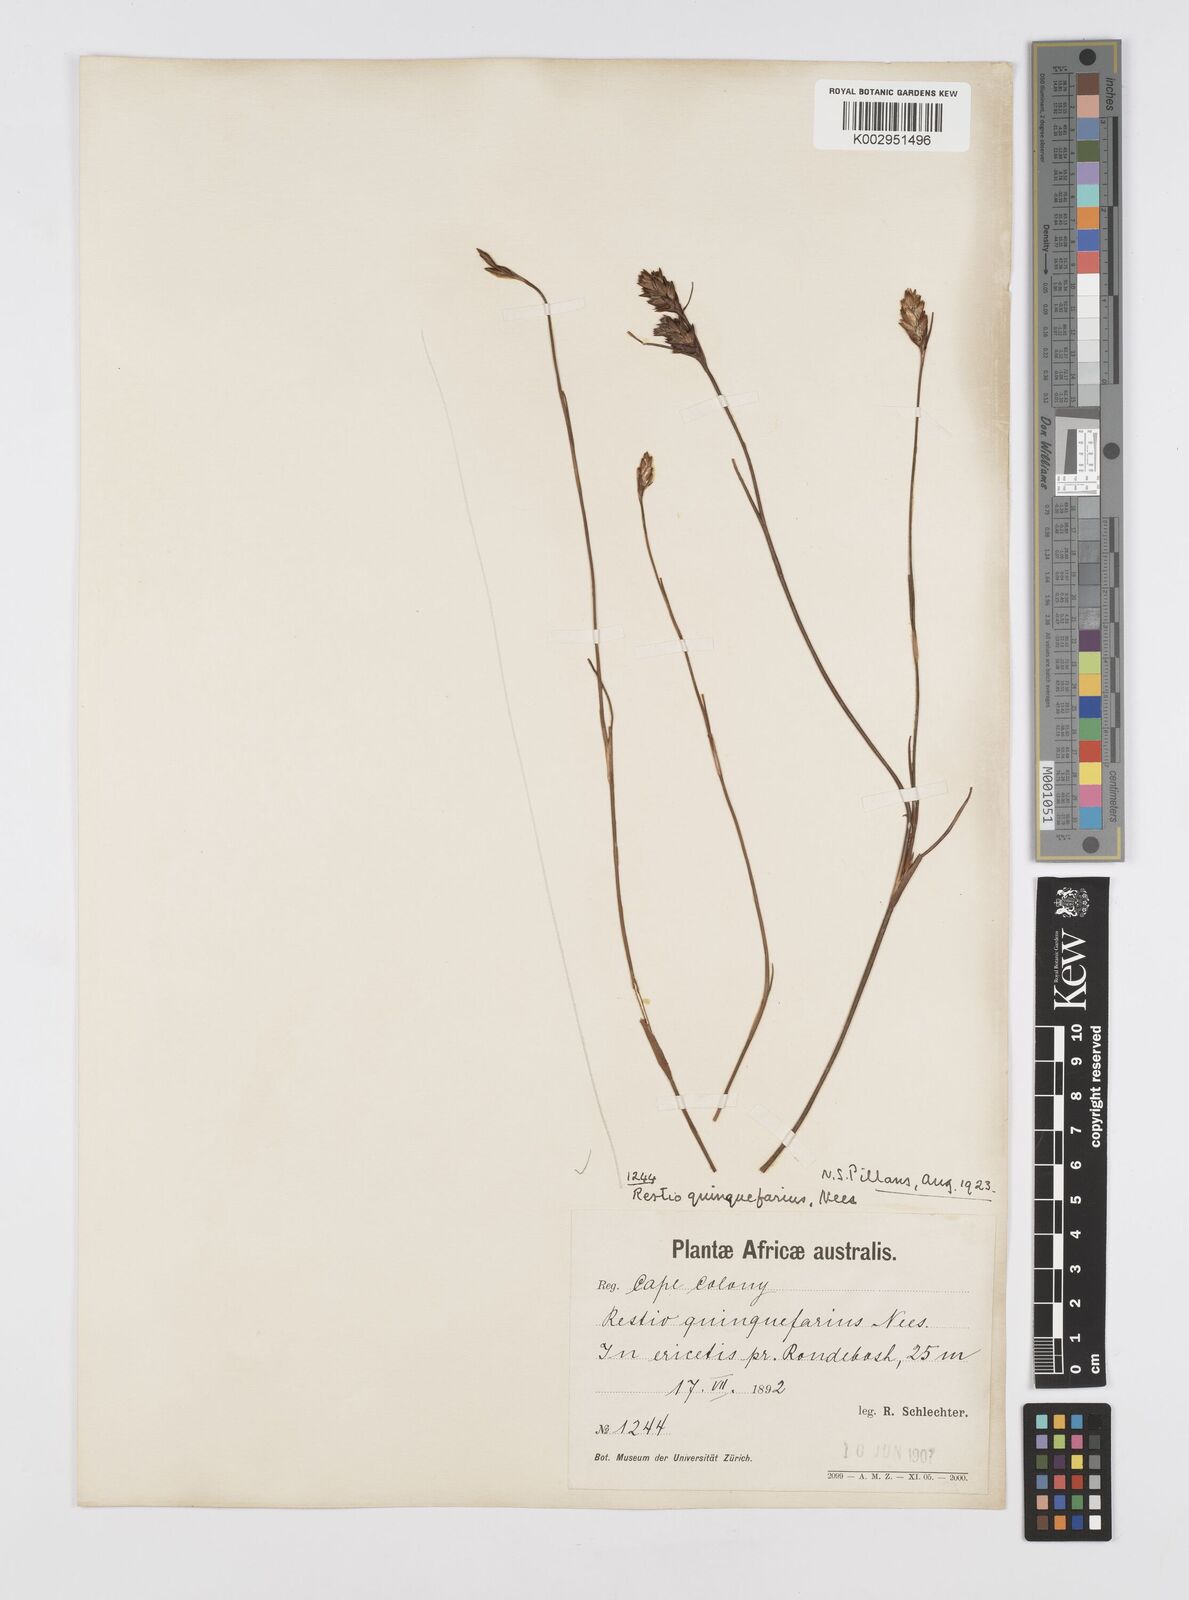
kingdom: Plantae
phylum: Tracheophyta
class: Liliopsida
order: Poales
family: Restionaceae
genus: Restio
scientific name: Restio quinquefarius
